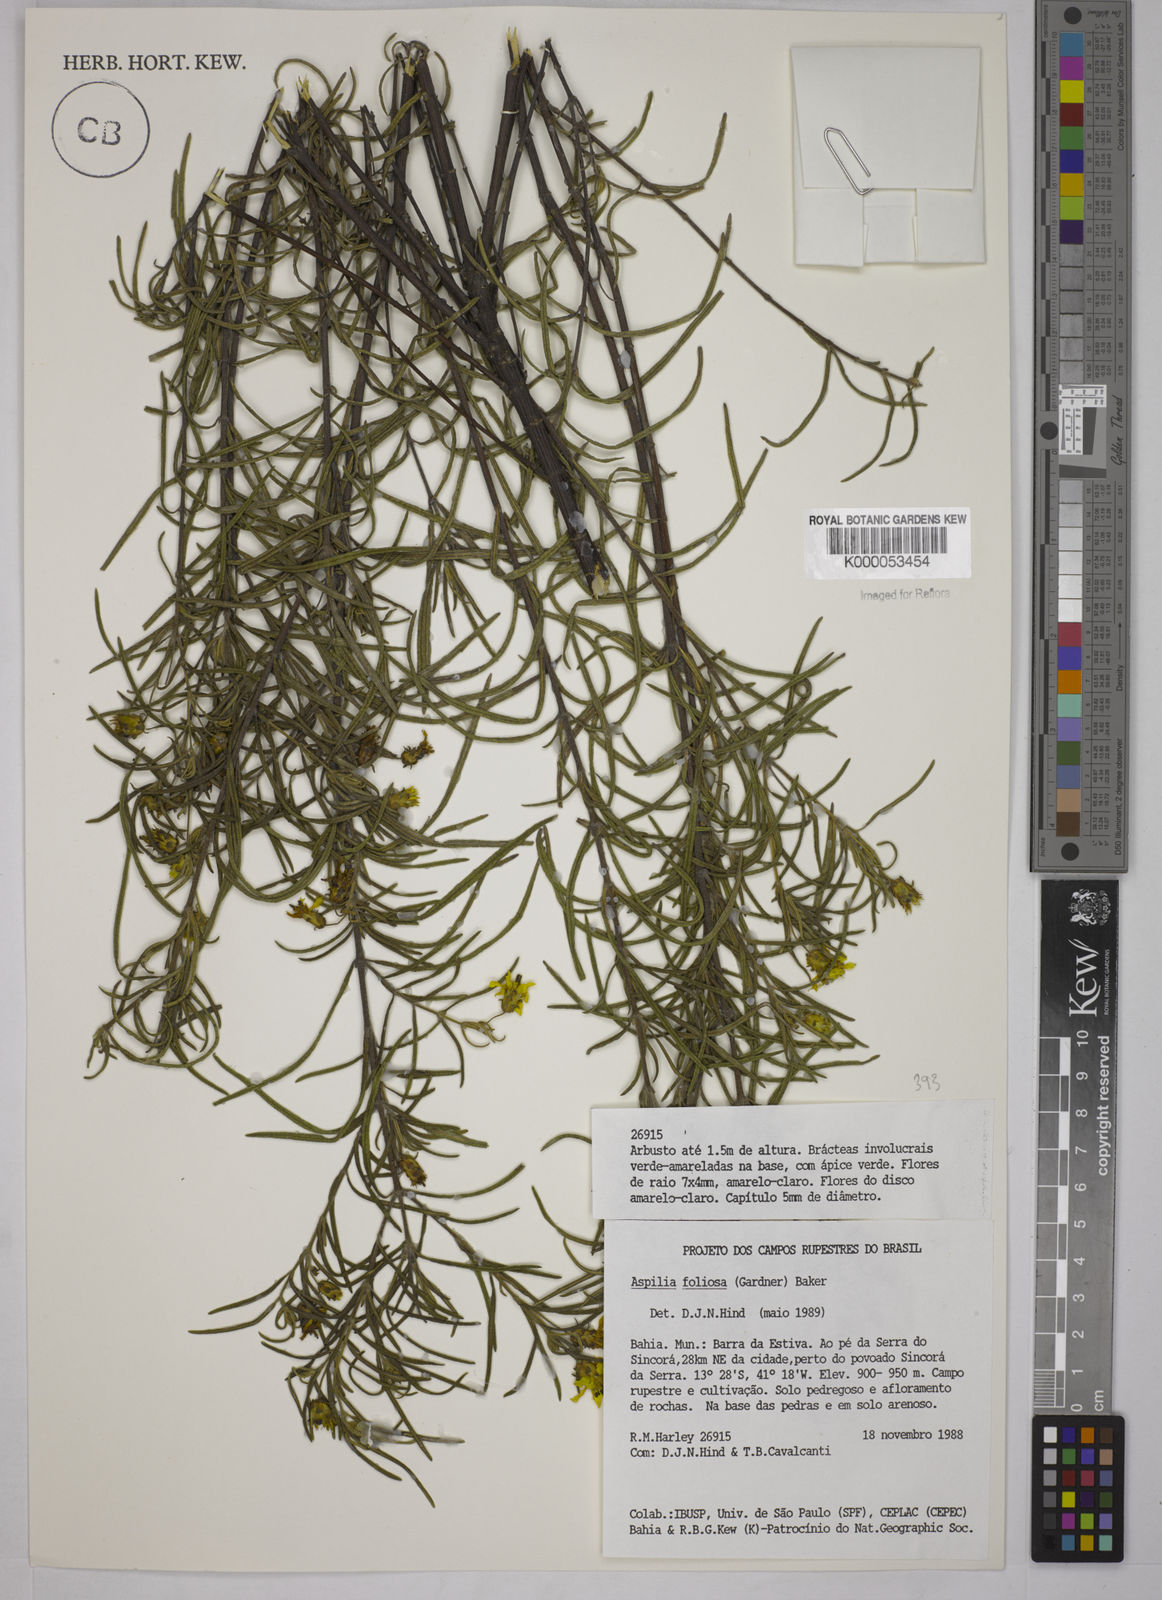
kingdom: Plantae
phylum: Tracheophyta
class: Magnoliopsida
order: Asterales
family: Asteraceae
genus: Aspilia
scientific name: Aspilia
